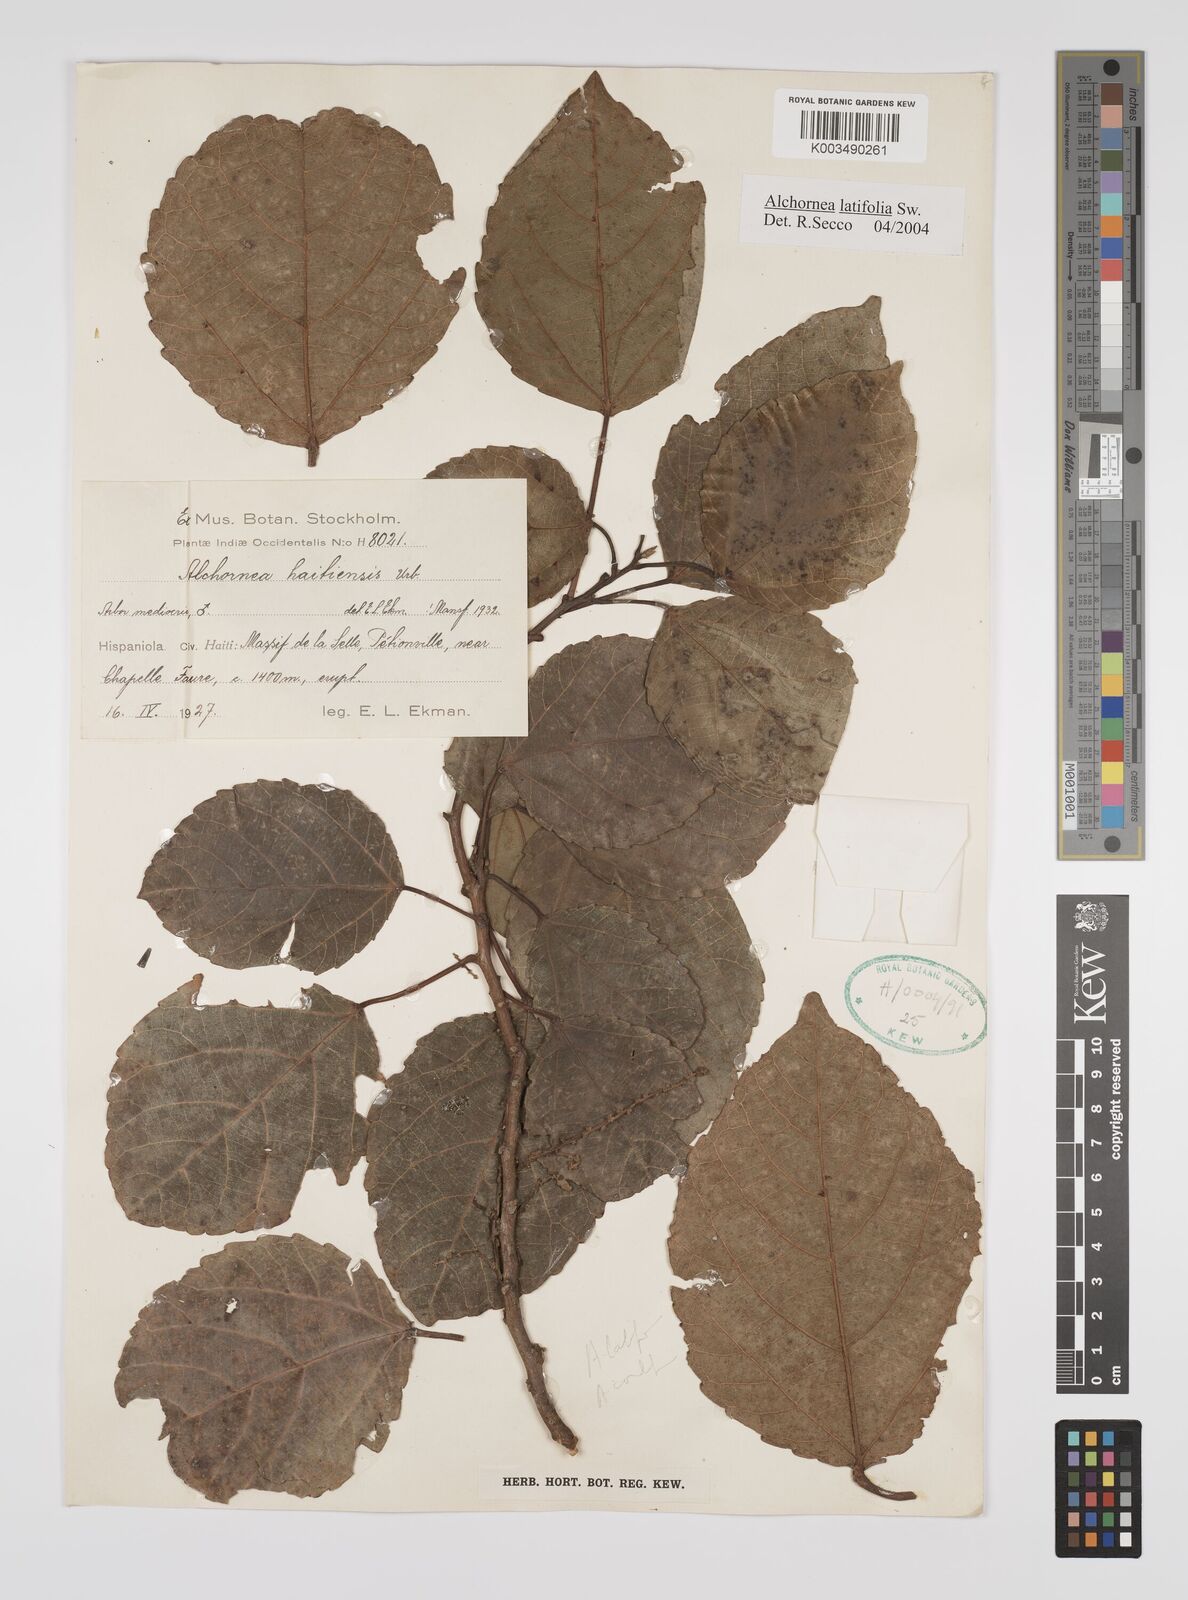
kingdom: Plantae
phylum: Tracheophyta
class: Magnoliopsida
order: Malpighiales
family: Euphorbiaceae
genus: Alchornea
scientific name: Alchornea latifolia
